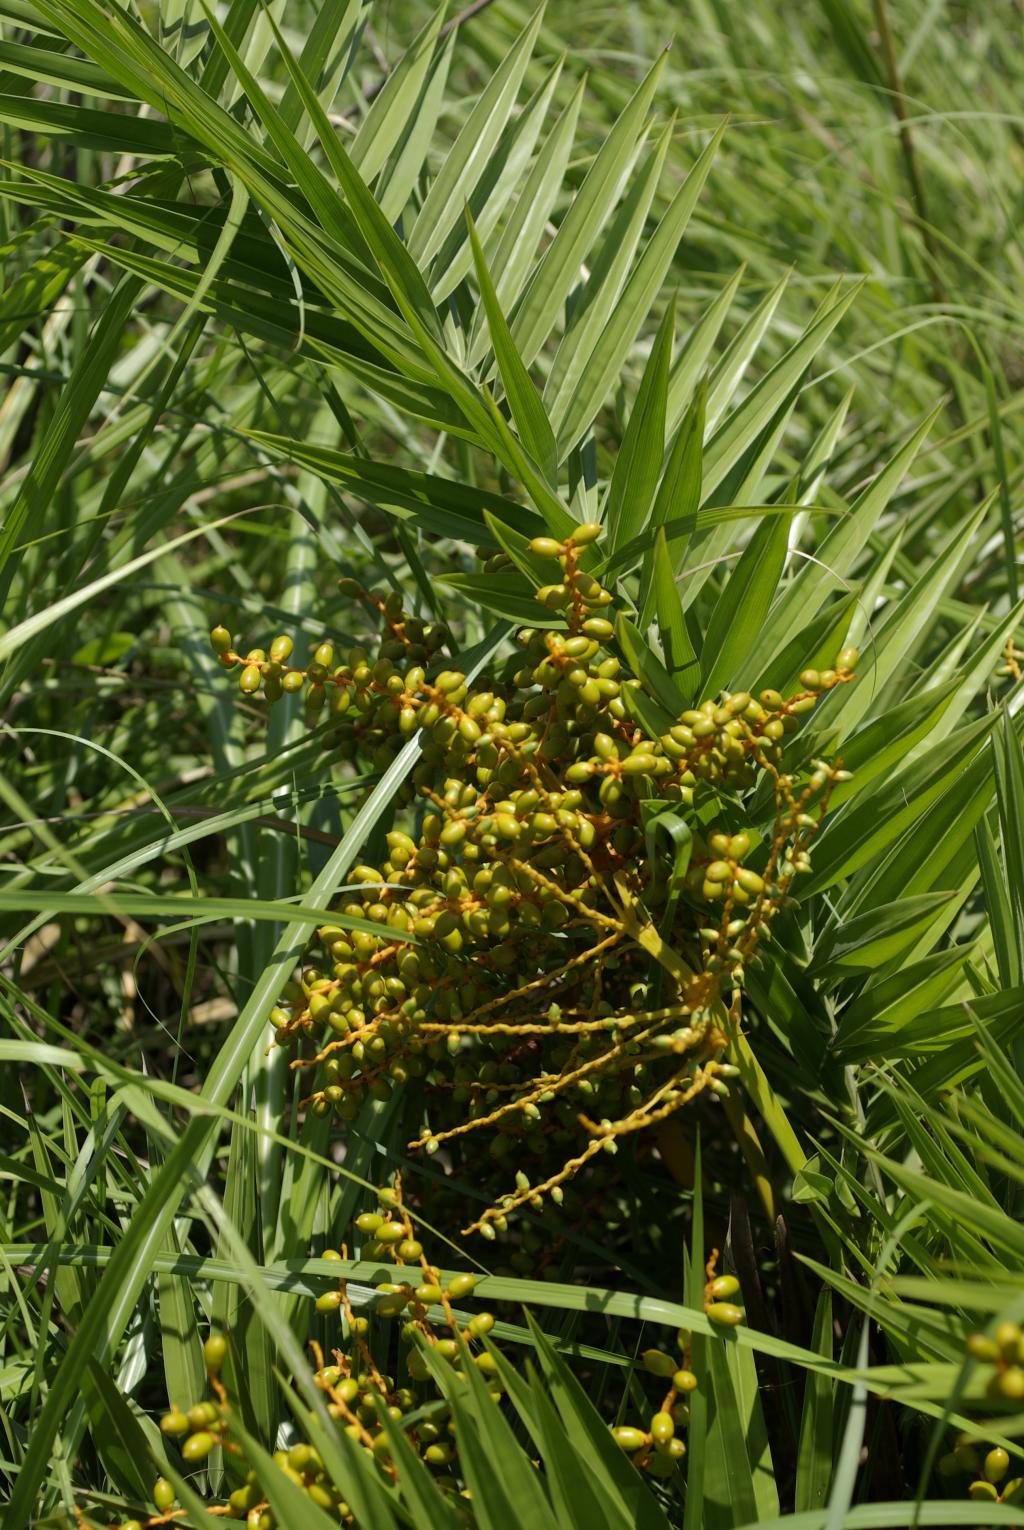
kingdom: Plantae
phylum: Tracheophyta
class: Liliopsida
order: Arecales
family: Arecaceae
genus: Phoenix
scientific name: Phoenix loureiroi
